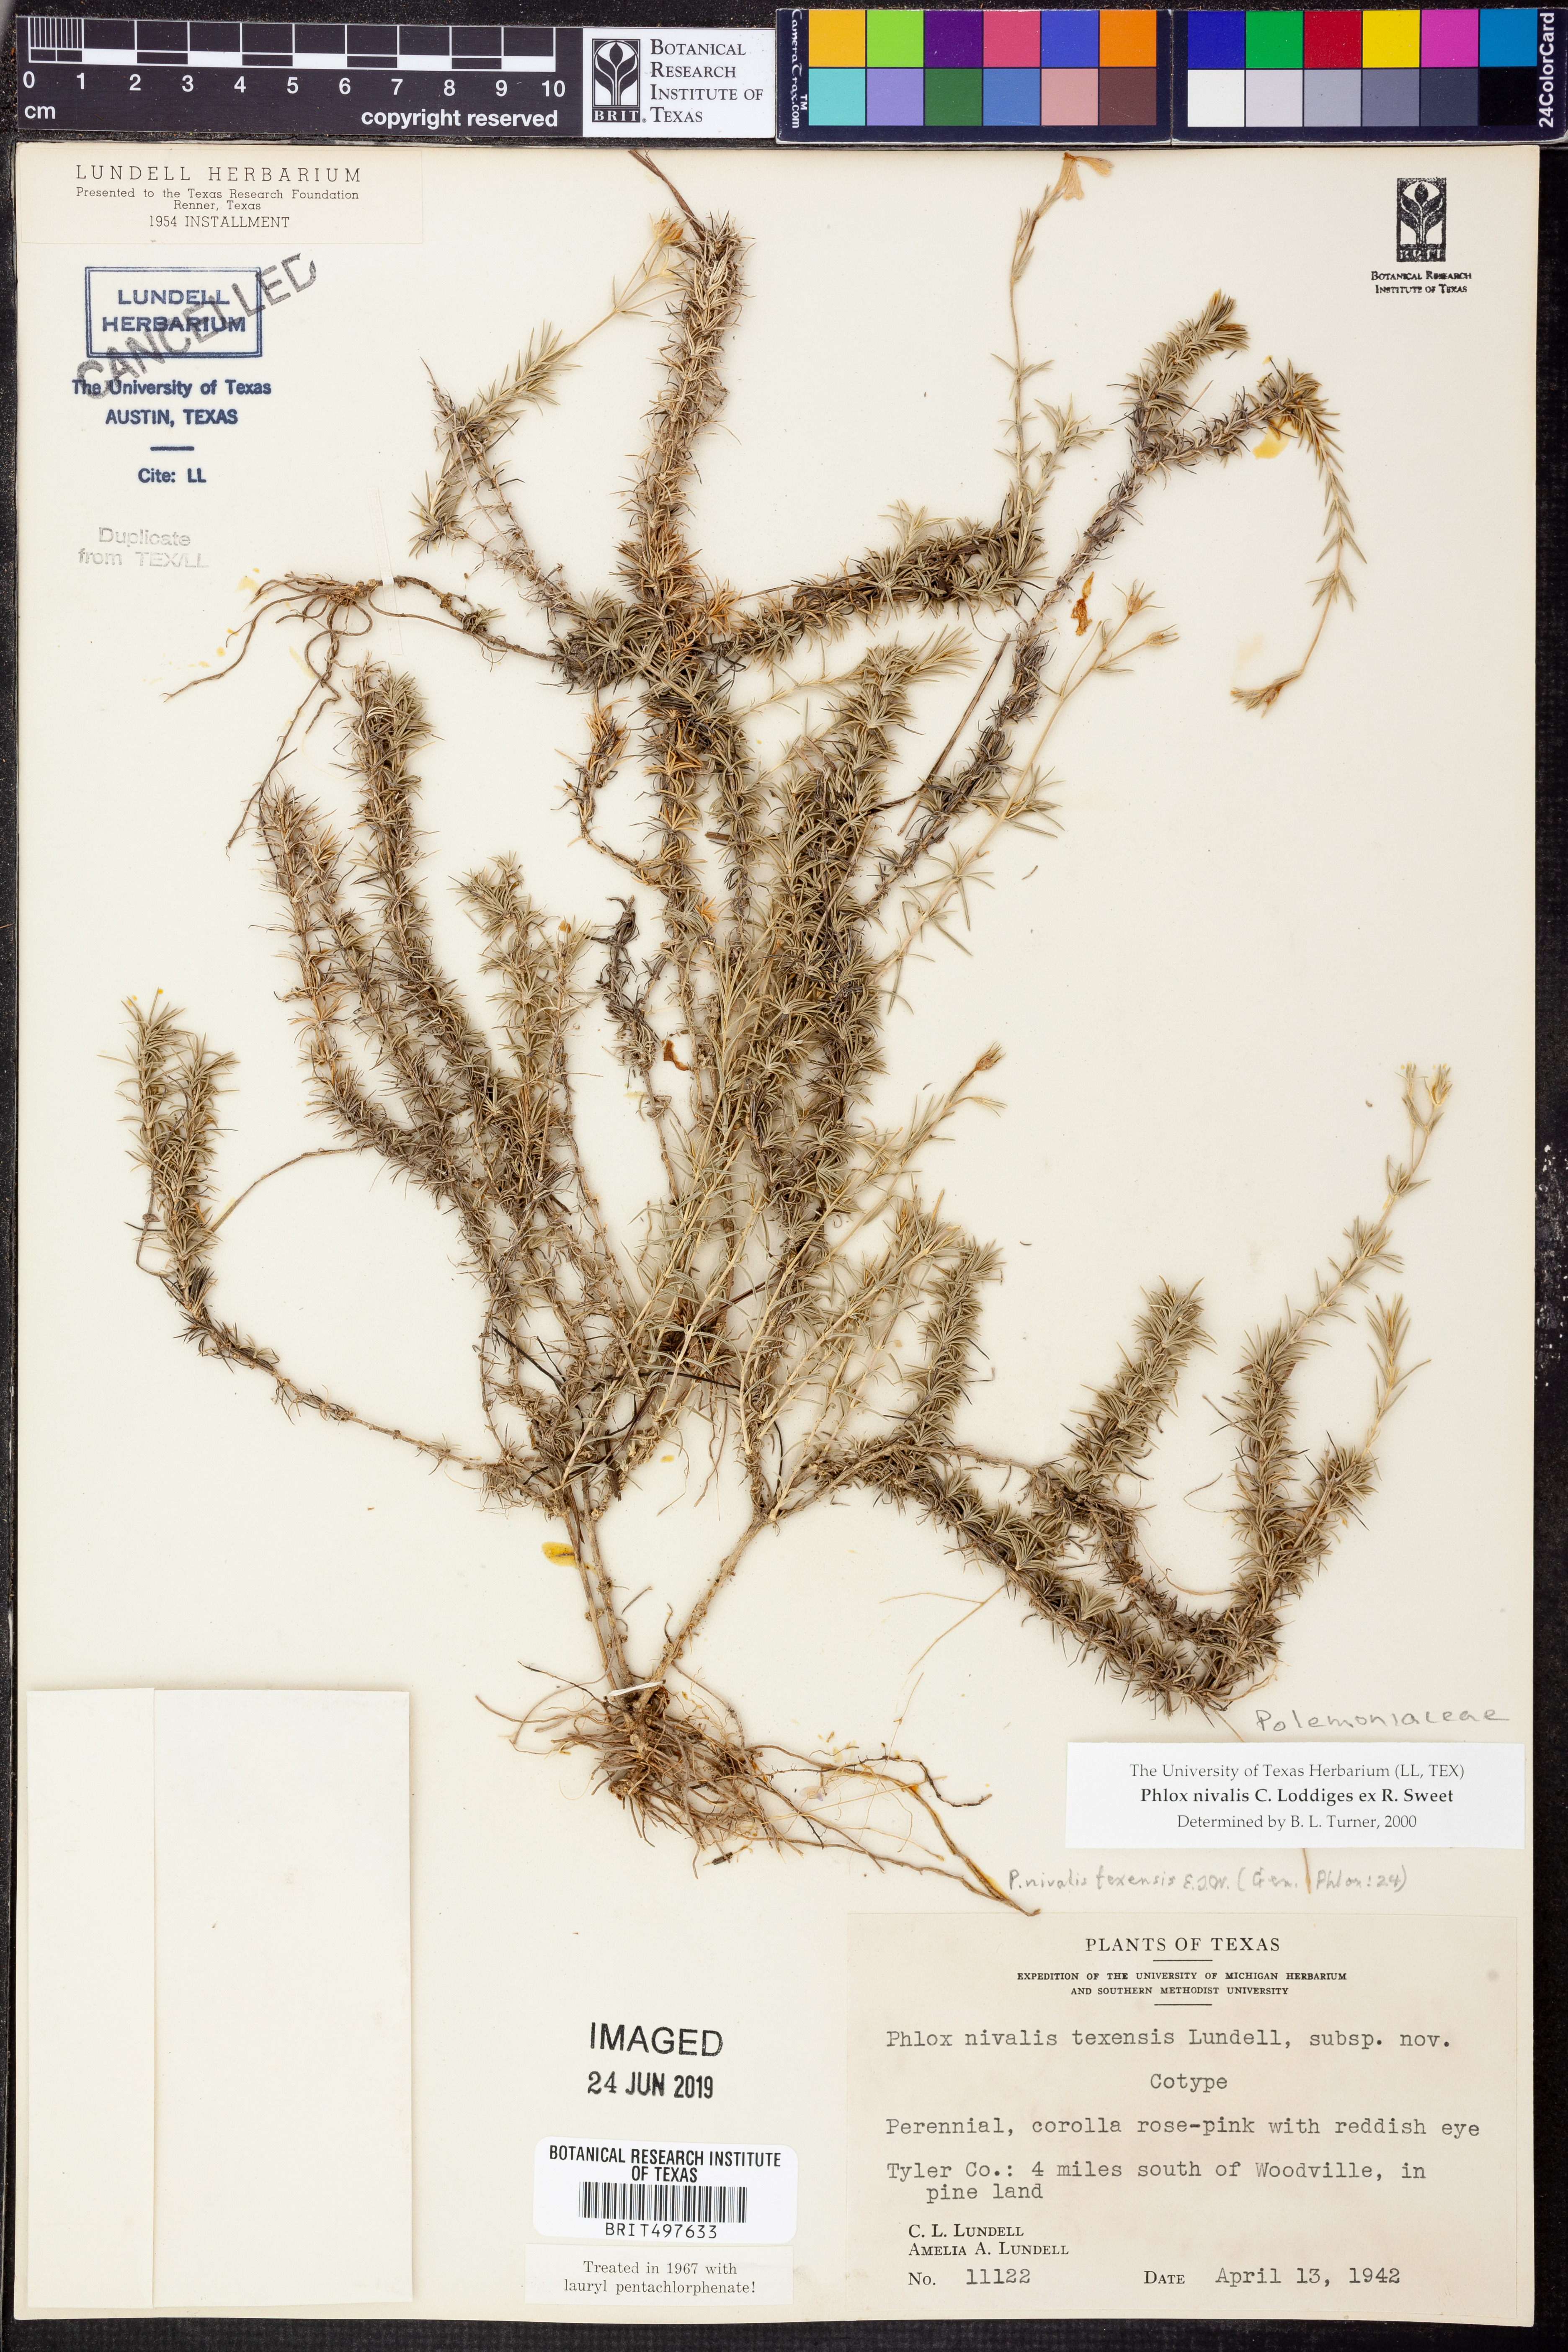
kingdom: Plantae
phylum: Tracheophyta
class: Magnoliopsida
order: Ericales
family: Polemoniaceae
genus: Phlox
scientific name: Phlox nivalis
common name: Trailing phlox
